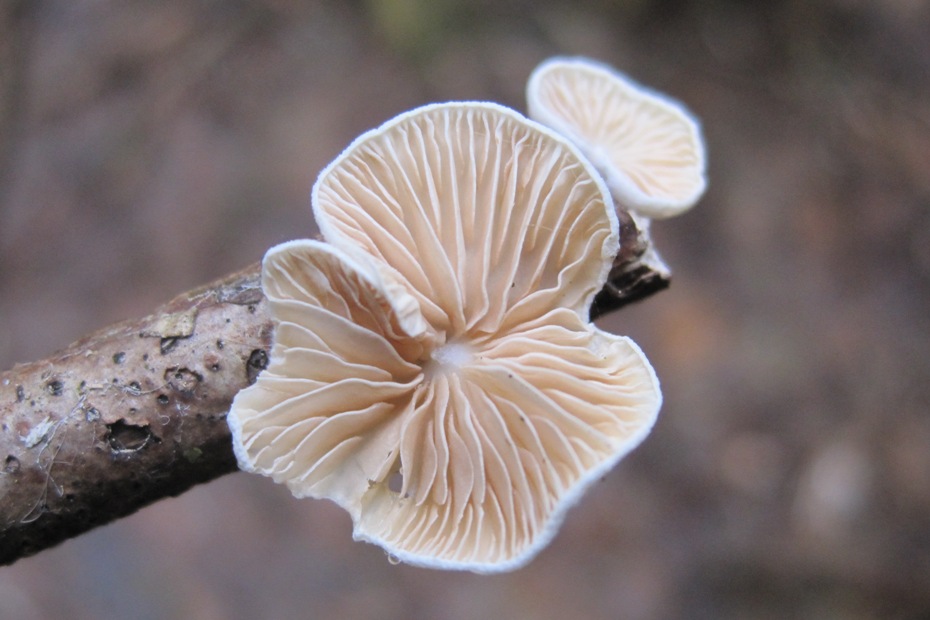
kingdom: Fungi
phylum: Basidiomycota
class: Agaricomycetes
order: Agaricales
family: Crepidotaceae
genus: Crepidotus
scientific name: Crepidotus cesatii
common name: almindelig muslingesvamp
